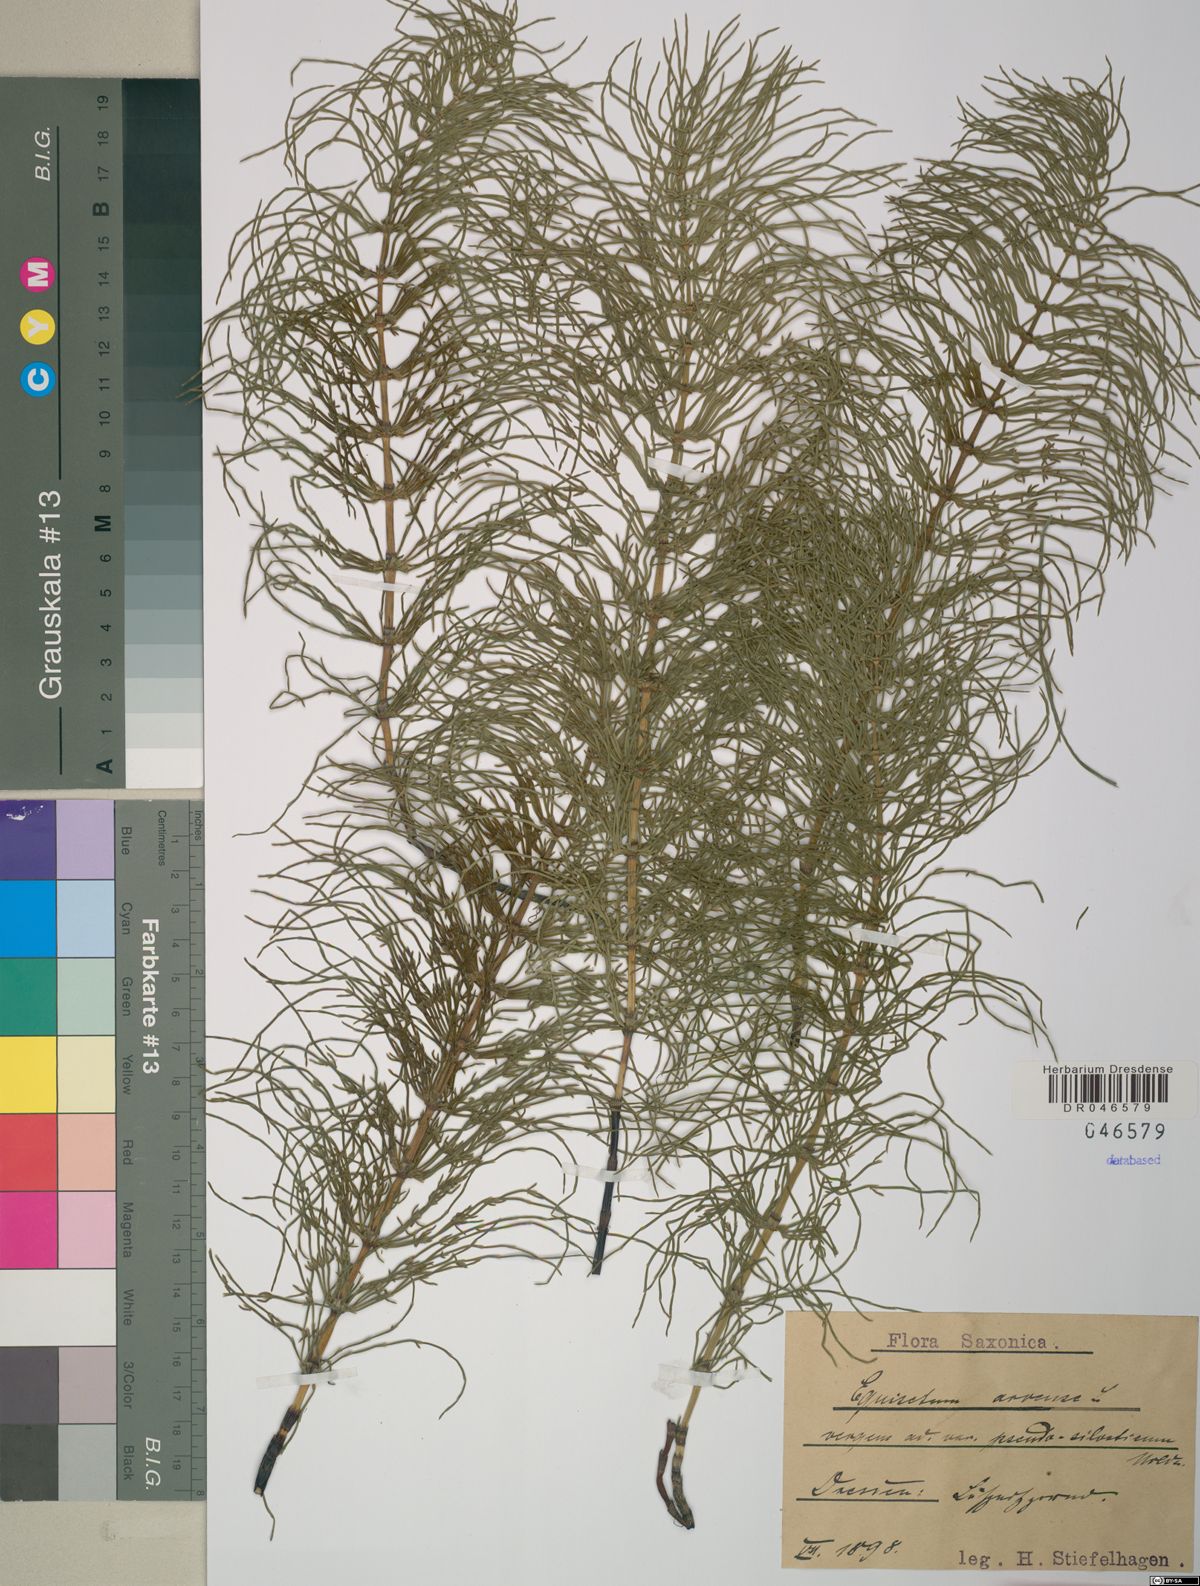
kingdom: Plantae
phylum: Tracheophyta
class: Polypodiopsida
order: Equisetales
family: Equisetaceae
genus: Equisetum
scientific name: Equisetum arvense
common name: Field horsetail
